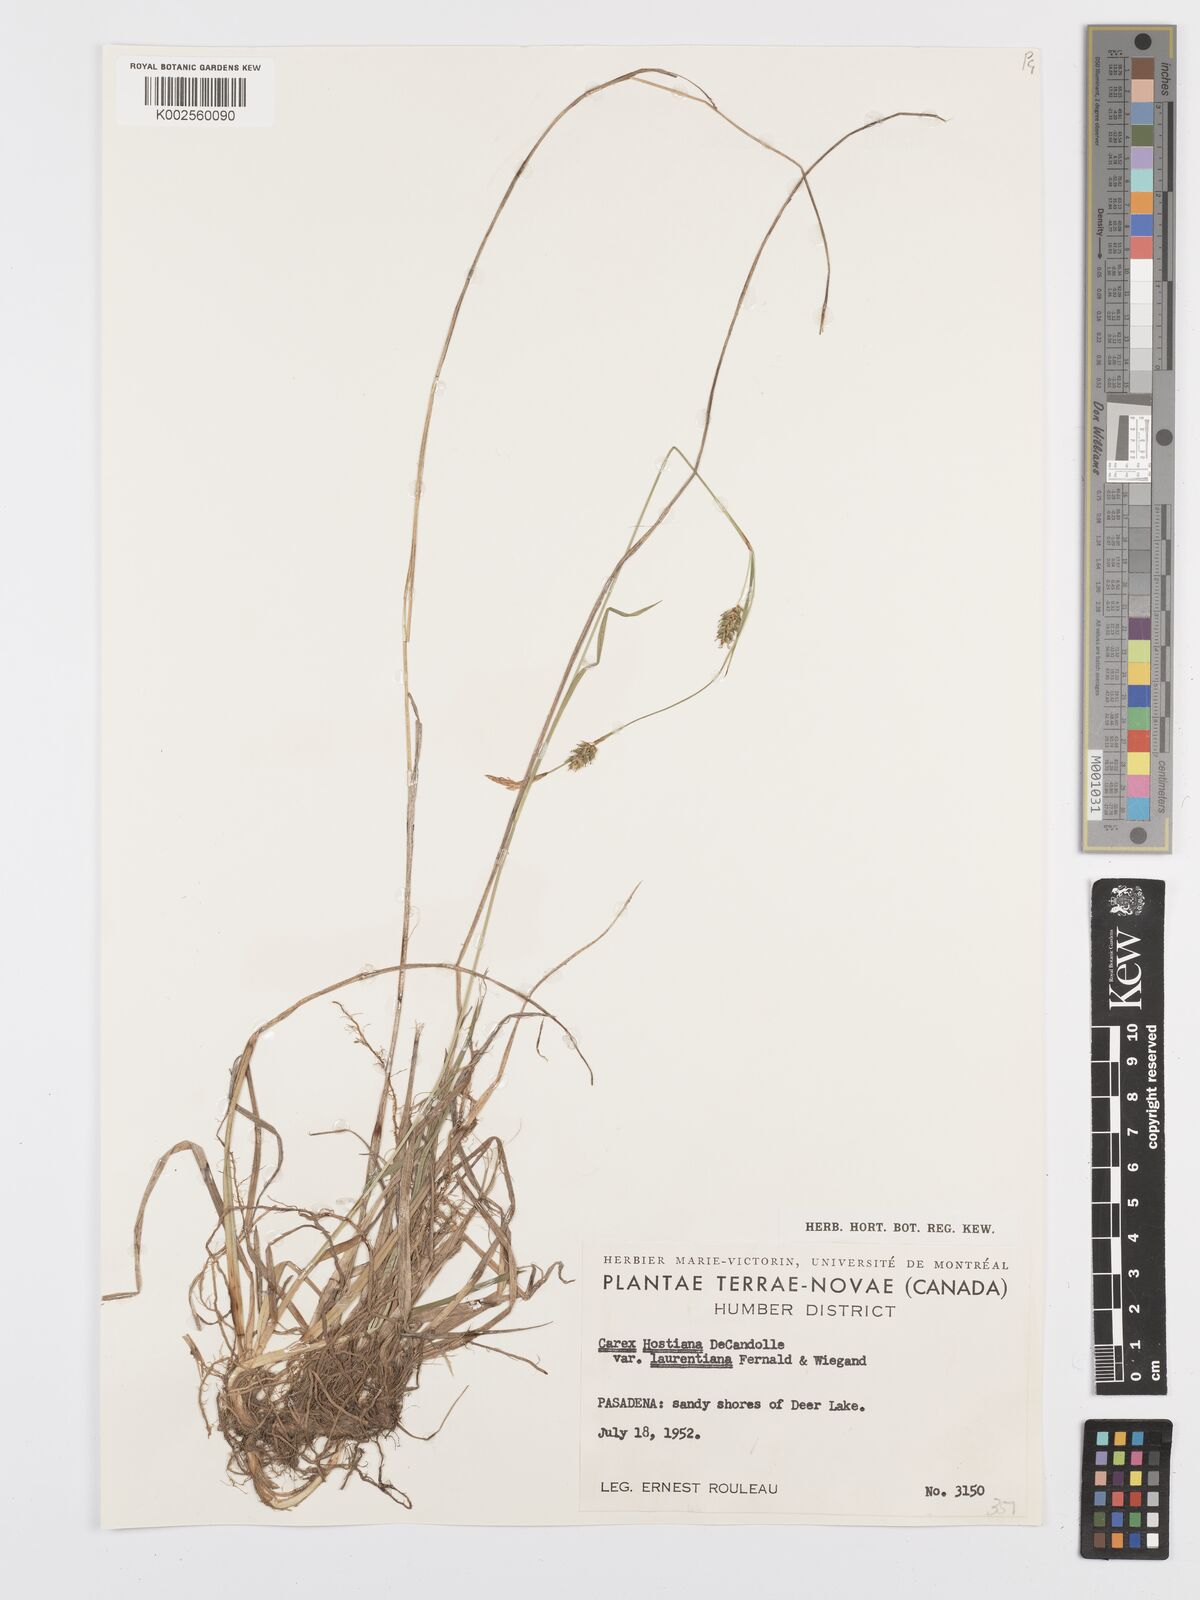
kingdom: Plantae
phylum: Tracheophyta
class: Liliopsida
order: Poales
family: Cyperaceae
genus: Carex
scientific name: Carex hostiana
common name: Tawny sedge
